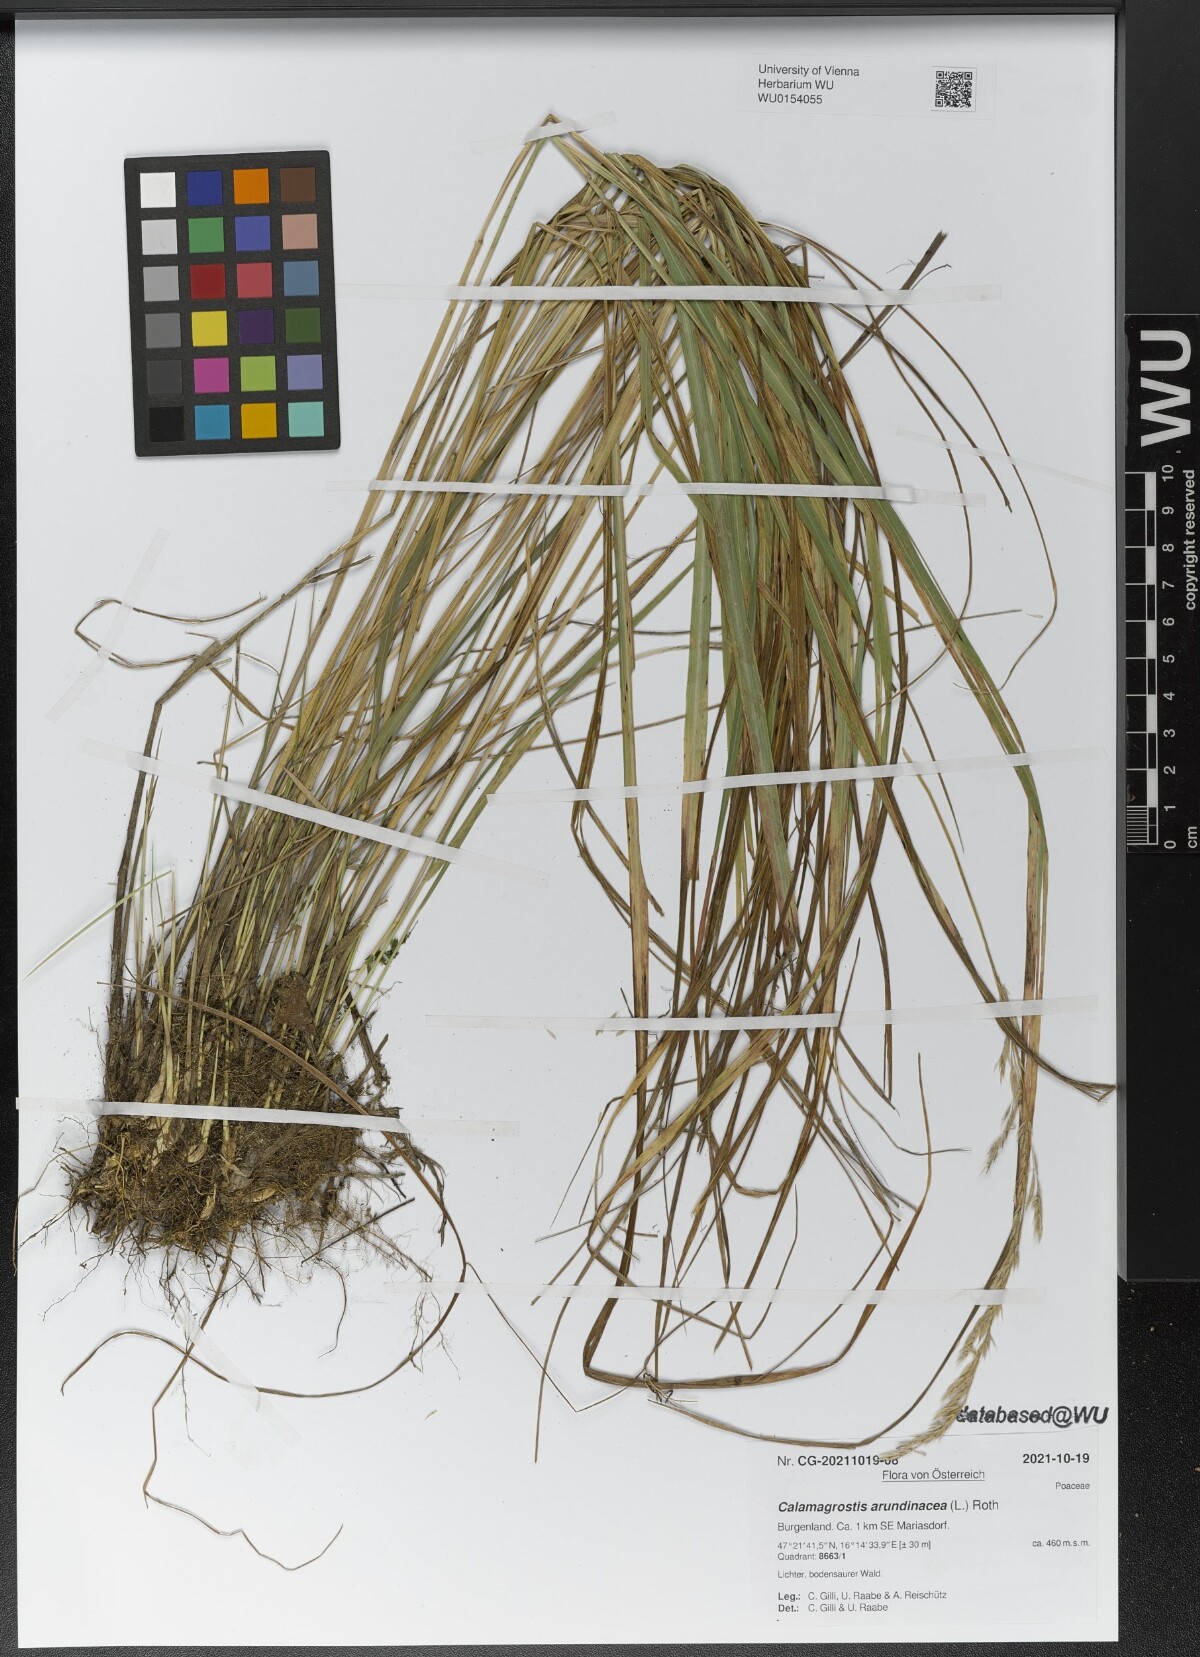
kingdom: Plantae
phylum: Tracheophyta
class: Liliopsida
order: Poales
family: Poaceae
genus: Calamagrostis
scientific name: Calamagrostis arundinacea
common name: Metskastik
